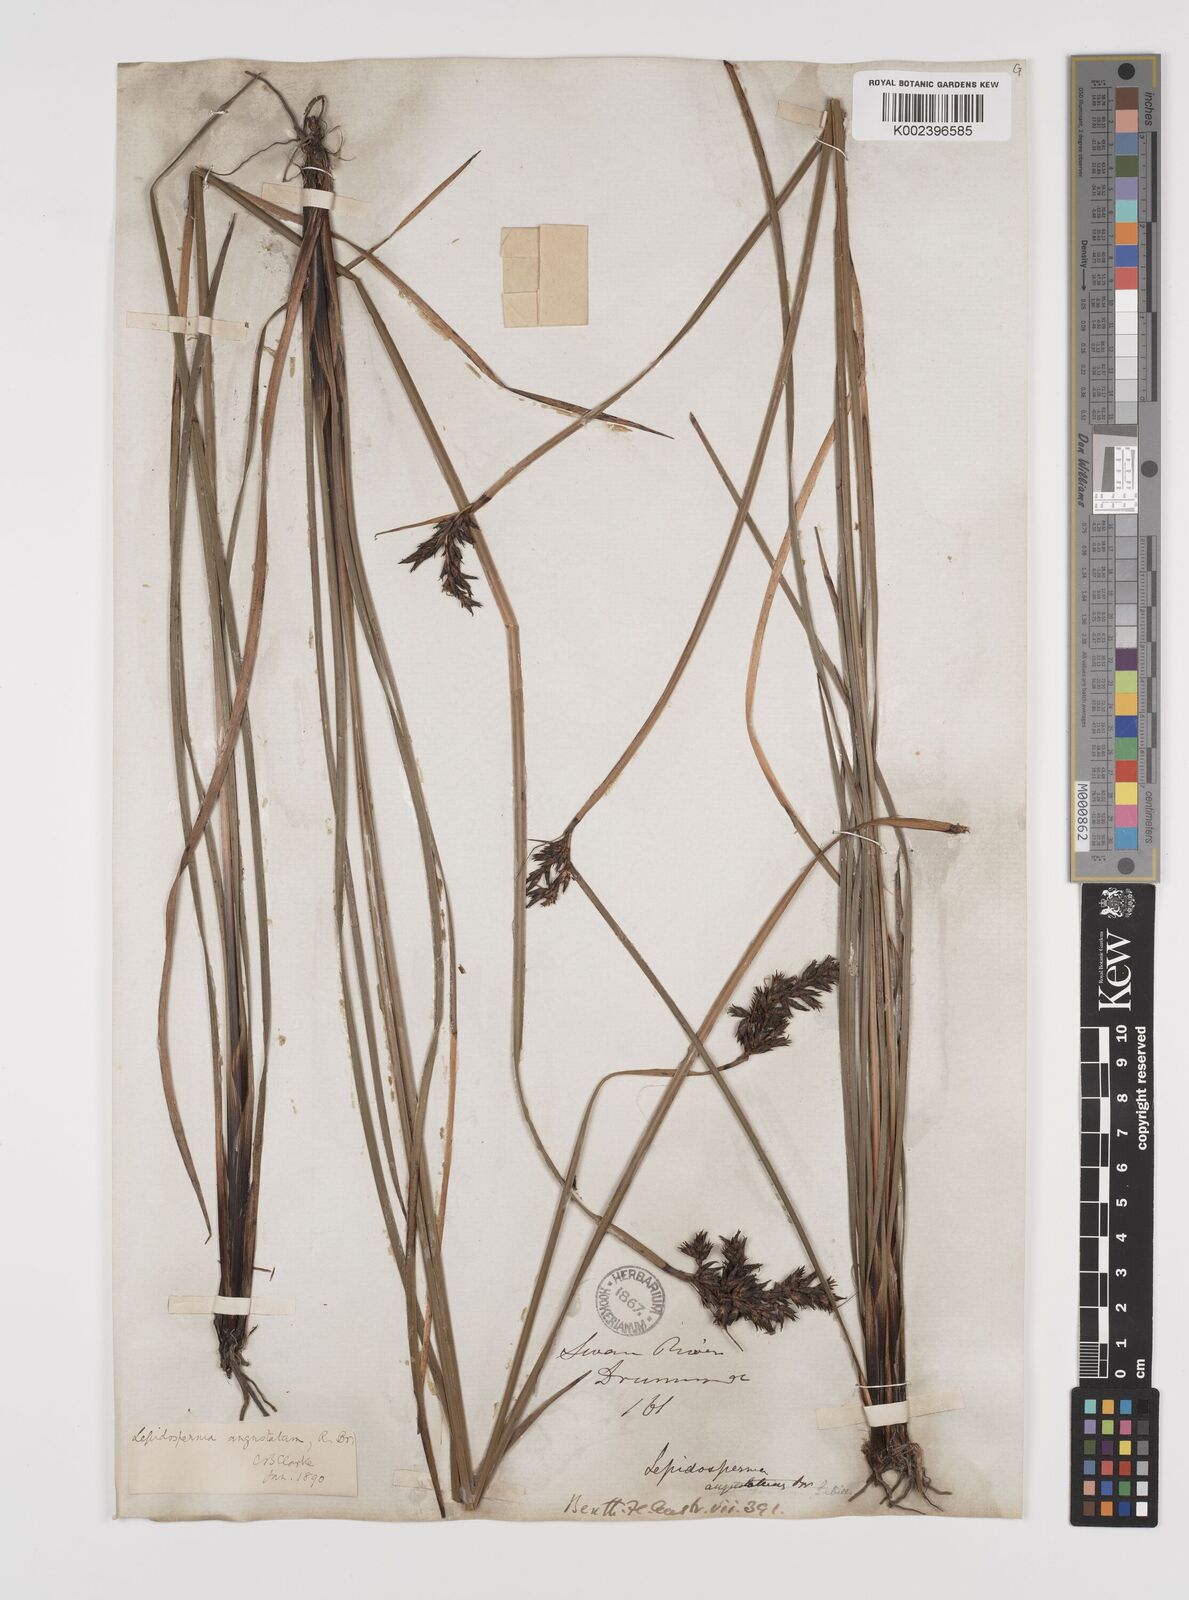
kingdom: Plantae
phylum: Tracheophyta
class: Liliopsida
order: Poales
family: Cyperaceae
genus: Lepidosperma
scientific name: Lepidosperma angustatum
